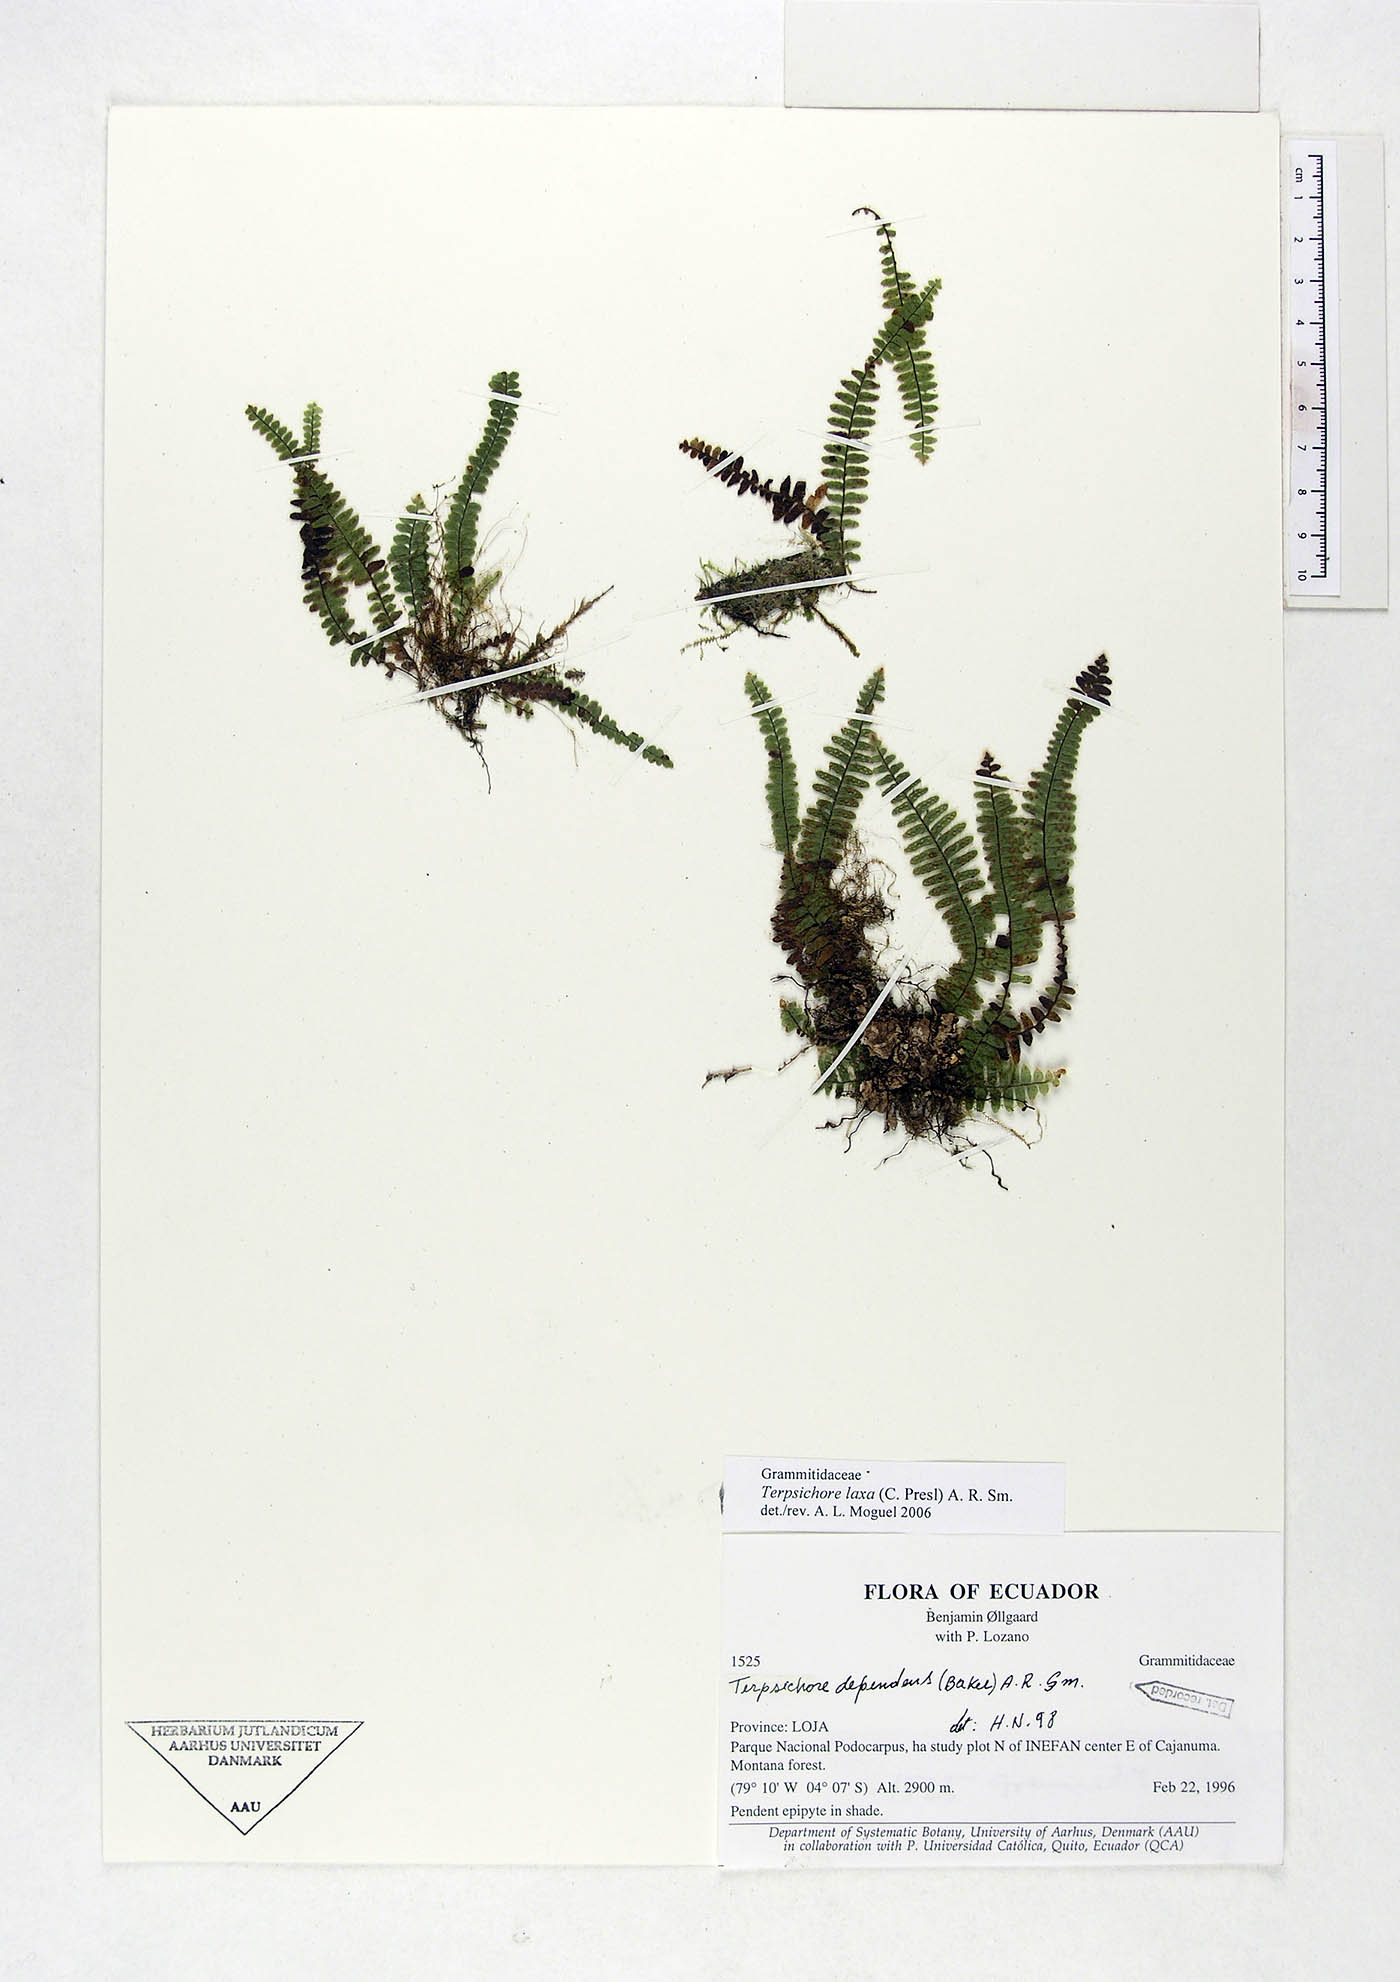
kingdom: Plantae
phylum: Tracheophyta
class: Polypodiopsida
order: Polypodiales
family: Polypodiaceae
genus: Alansmia
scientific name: Alansmia laxa
